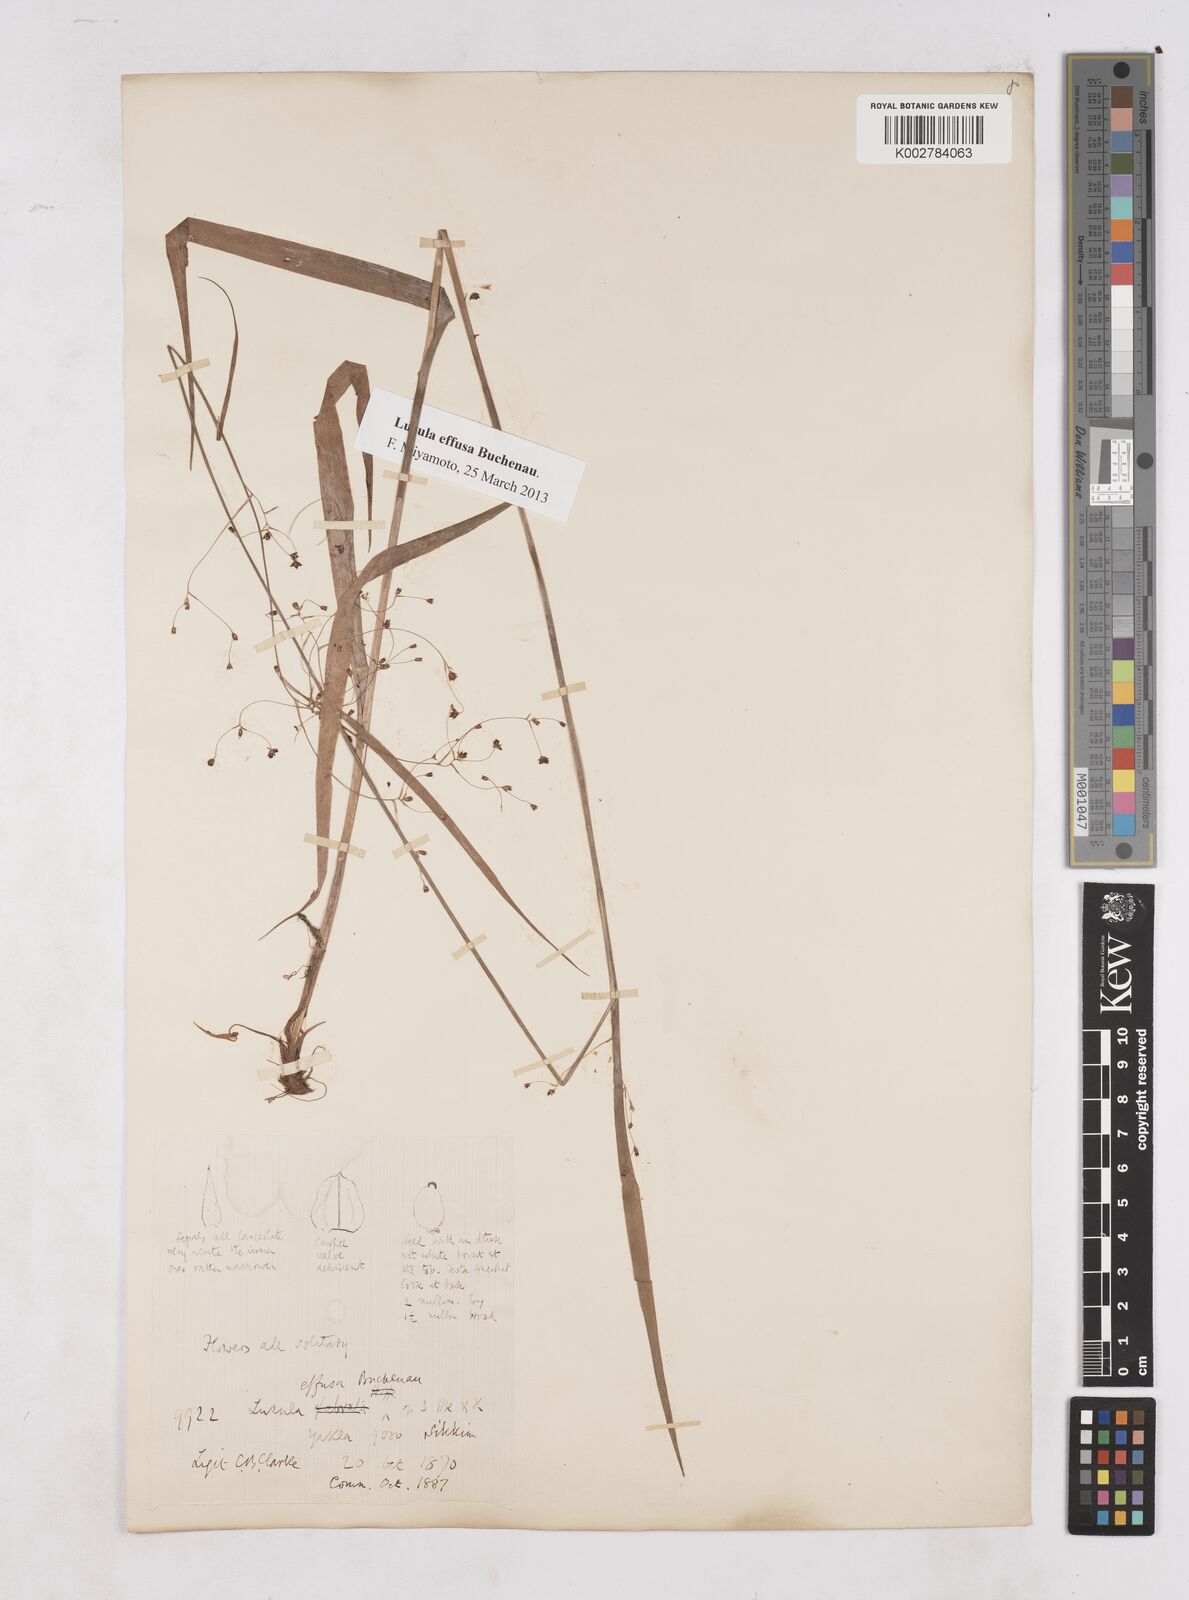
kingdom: Plantae
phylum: Tracheophyta
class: Liliopsida
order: Poales
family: Juncaceae
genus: Luzula
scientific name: Luzula effusa
